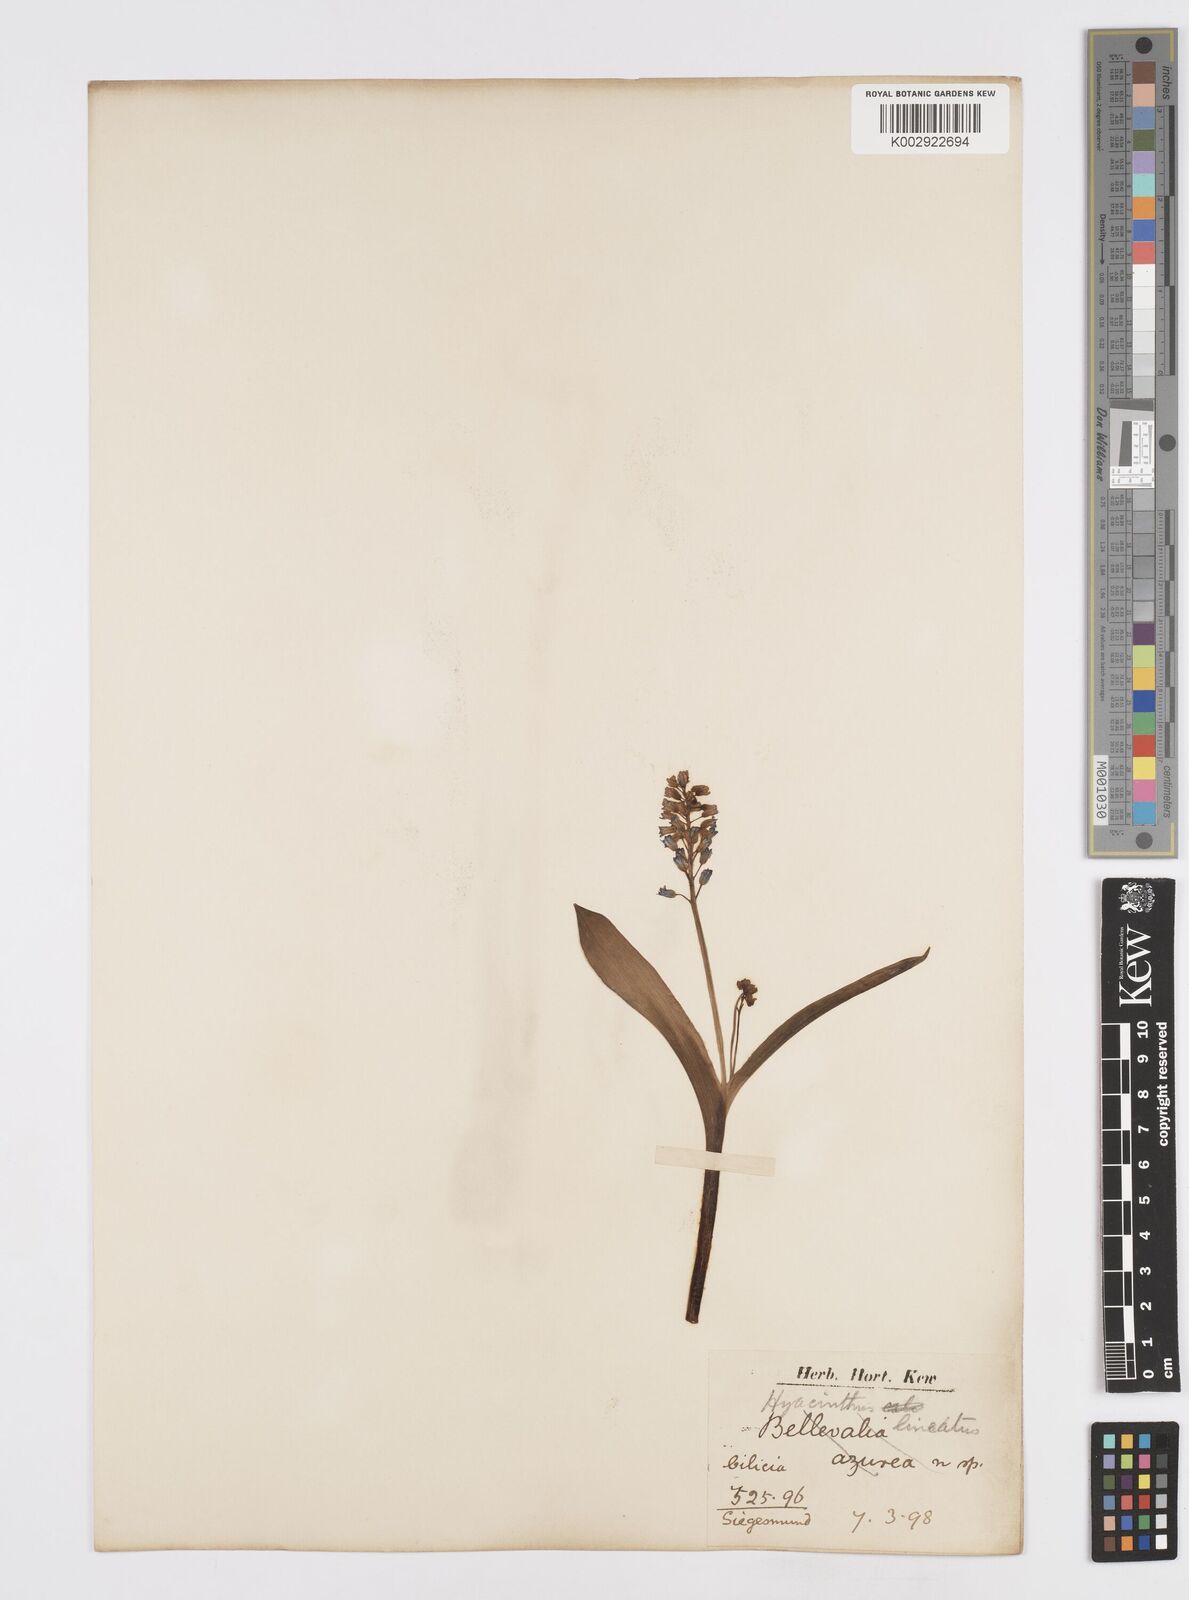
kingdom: Plantae
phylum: Tracheophyta
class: Liliopsida
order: Asparagales
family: Asparagaceae
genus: Hyacinthella
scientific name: Hyacinthella lineata
